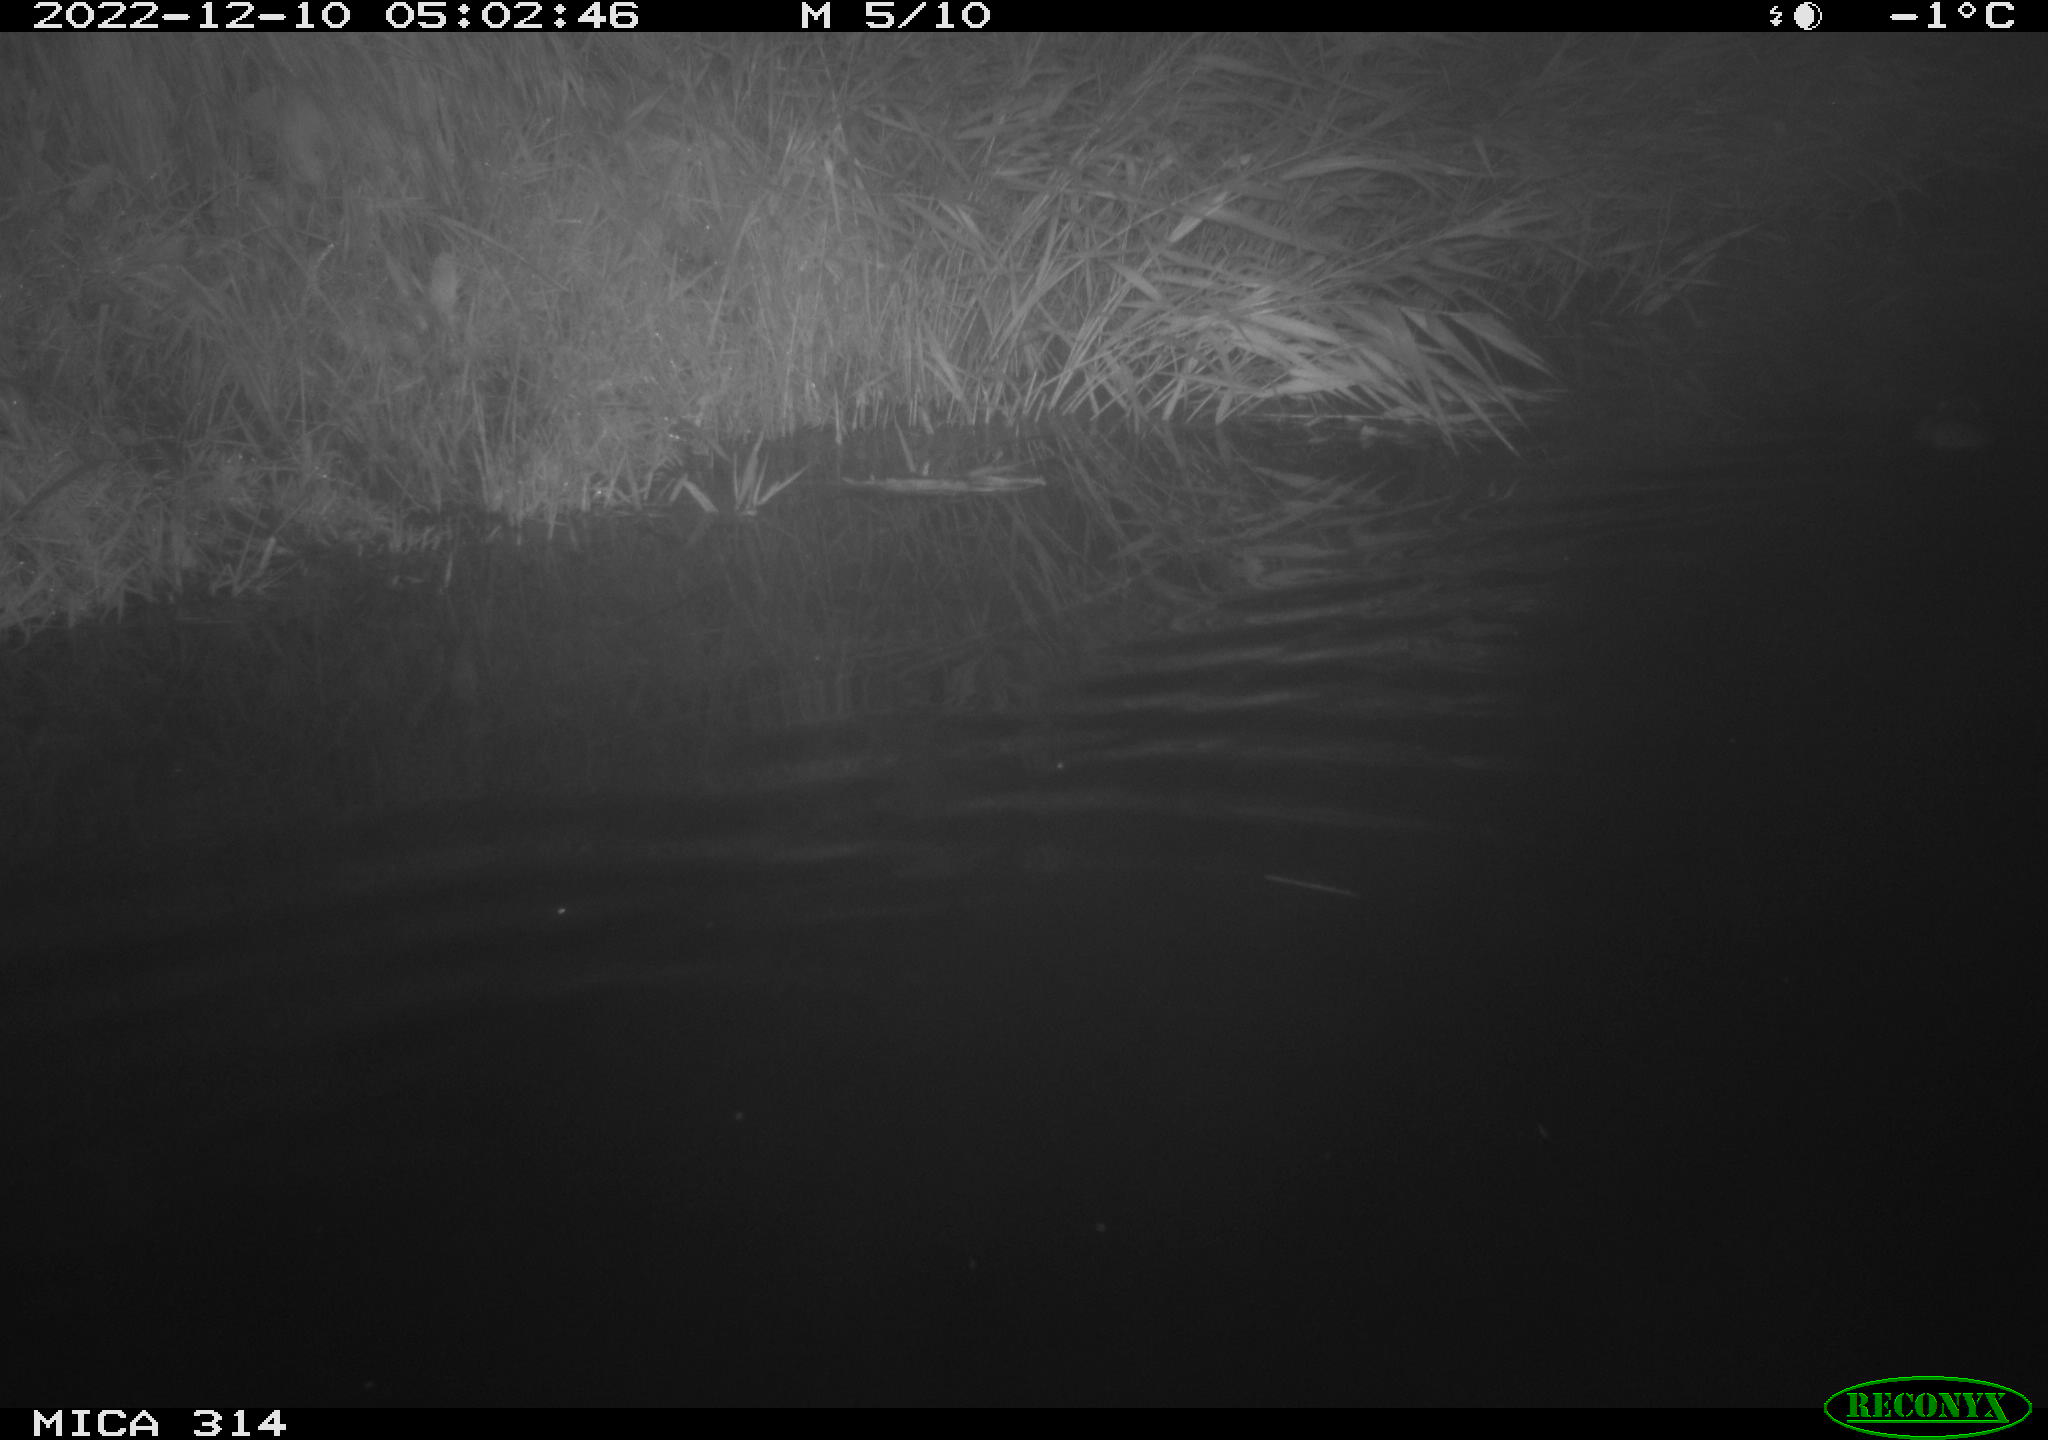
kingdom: Animalia
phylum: Chordata
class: Mammalia
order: Rodentia
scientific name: Rodentia
